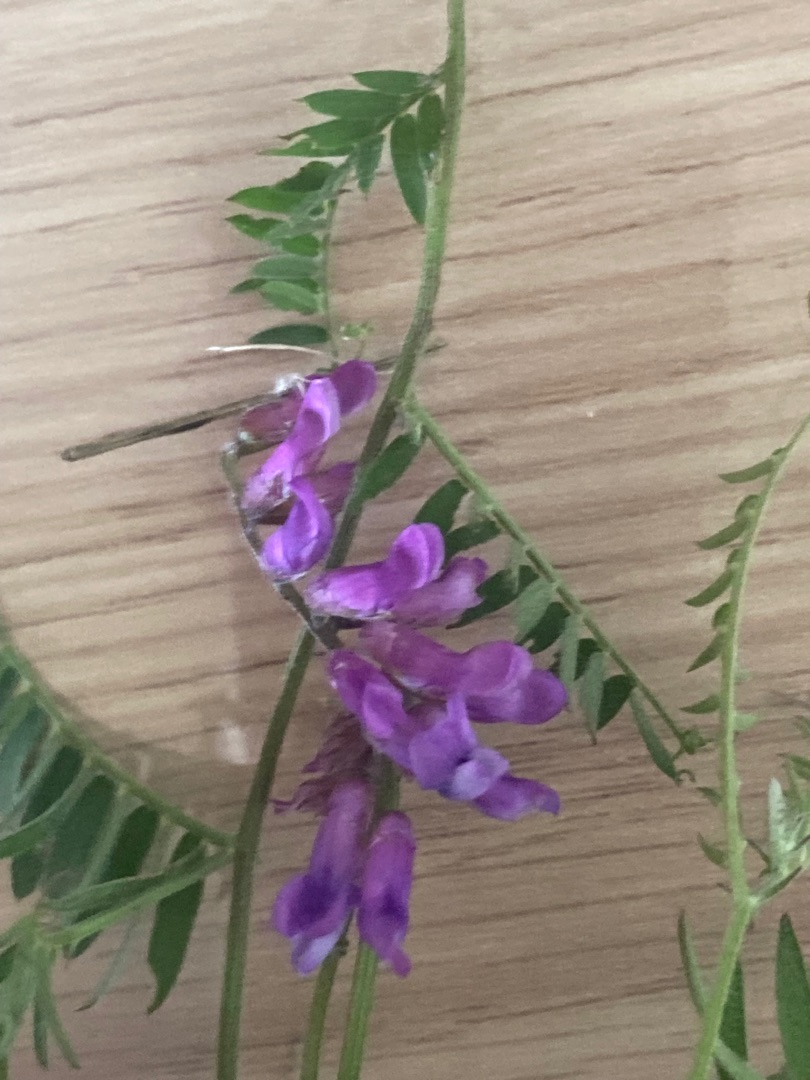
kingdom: Plantae
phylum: Tracheophyta
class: Magnoliopsida
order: Fabales
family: Fabaceae
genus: Vicia
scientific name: Vicia cracca
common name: Muse-vikke
